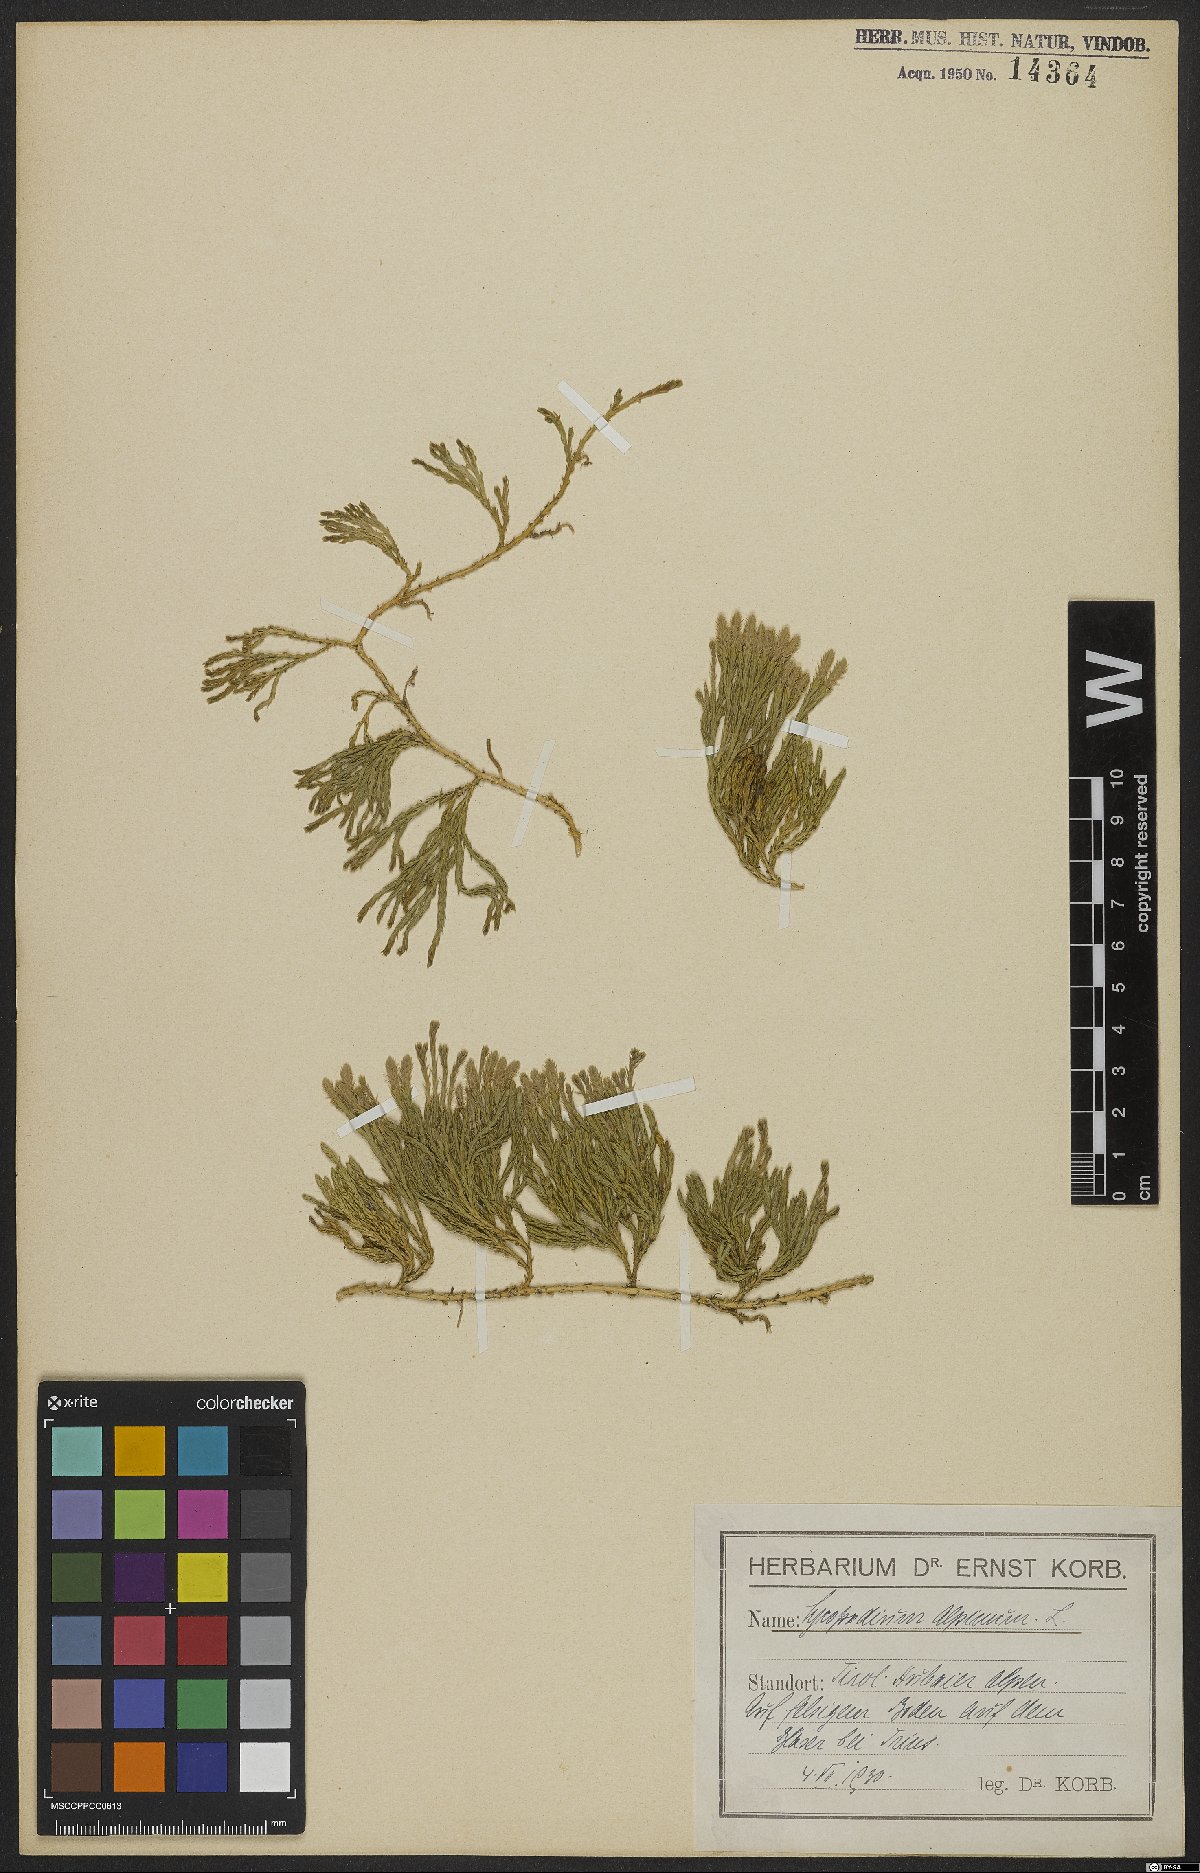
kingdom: Plantae
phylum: Tracheophyta
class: Lycopodiopsida
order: Lycopodiales
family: Lycopodiaceae
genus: Diphasiastrum
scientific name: Diphasiastrum alpinum
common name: Alpine clubmoss
